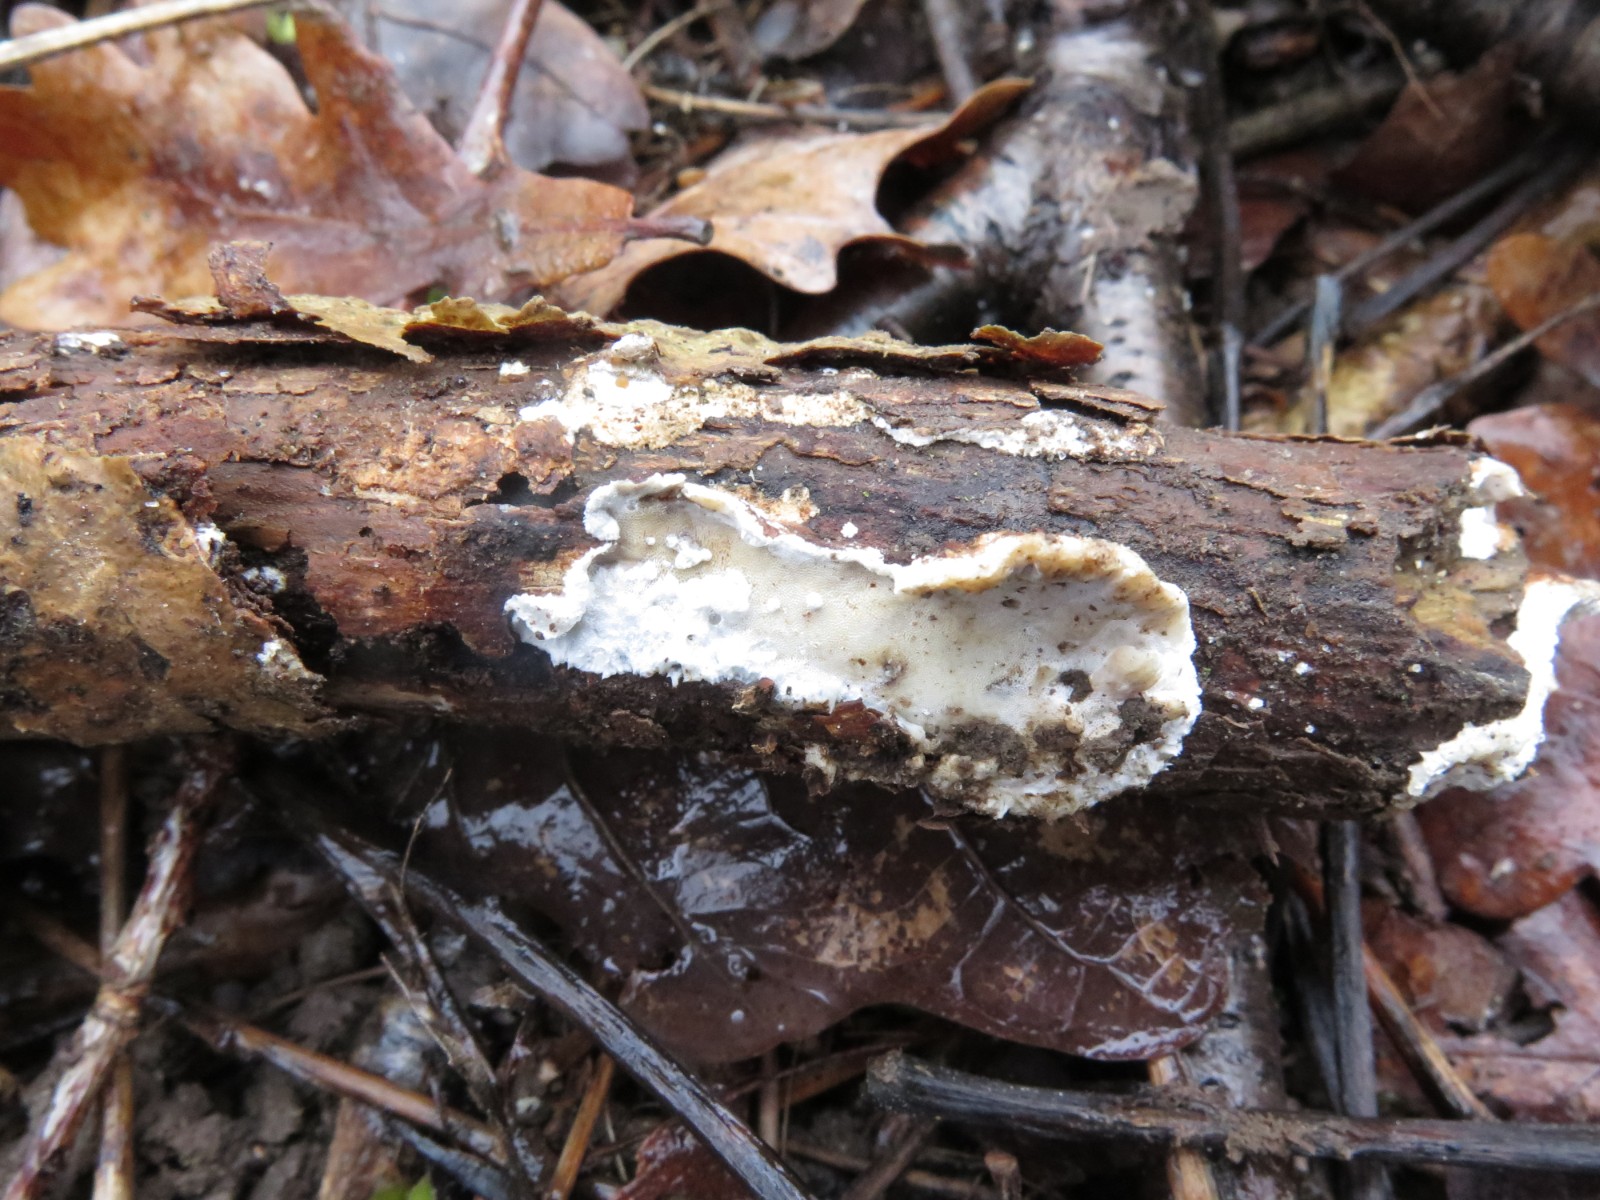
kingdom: Fungi
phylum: Basidiomycota
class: Agaricomycetes
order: Polyporales
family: Incrustoporiaceae
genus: Skeletocutis
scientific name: Skeletocutis nemoralis
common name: stor krystalporesvamp
